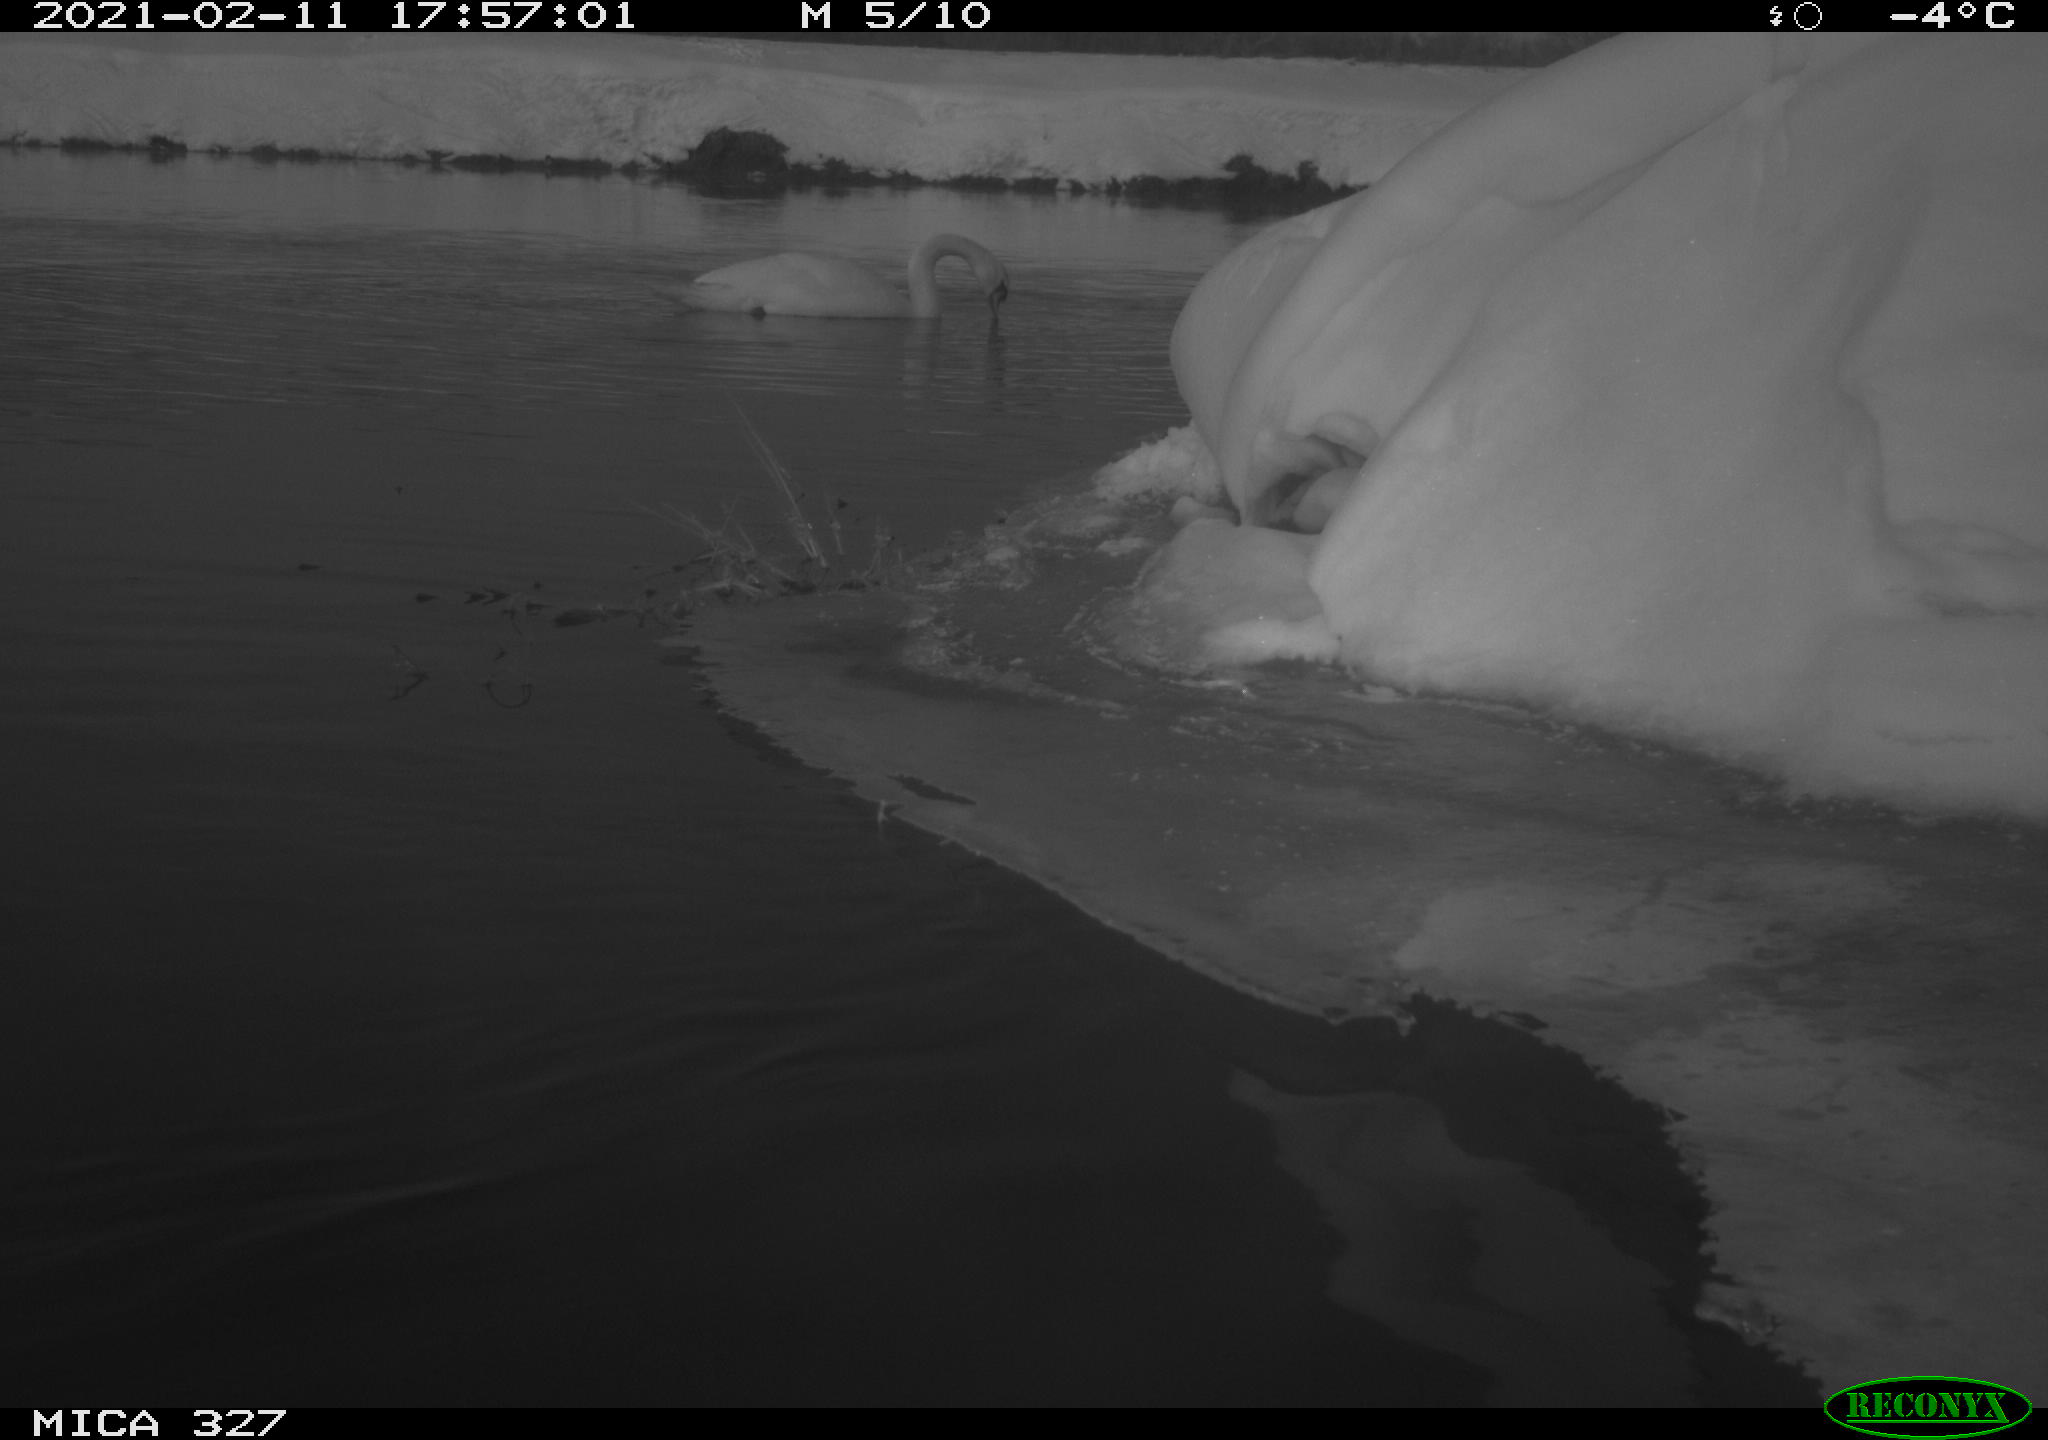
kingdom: Animalia
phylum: Chordata
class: Aves
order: Gruiformes
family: Rallidae
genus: Fulica
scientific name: Fulica atra
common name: Eurasian coot
